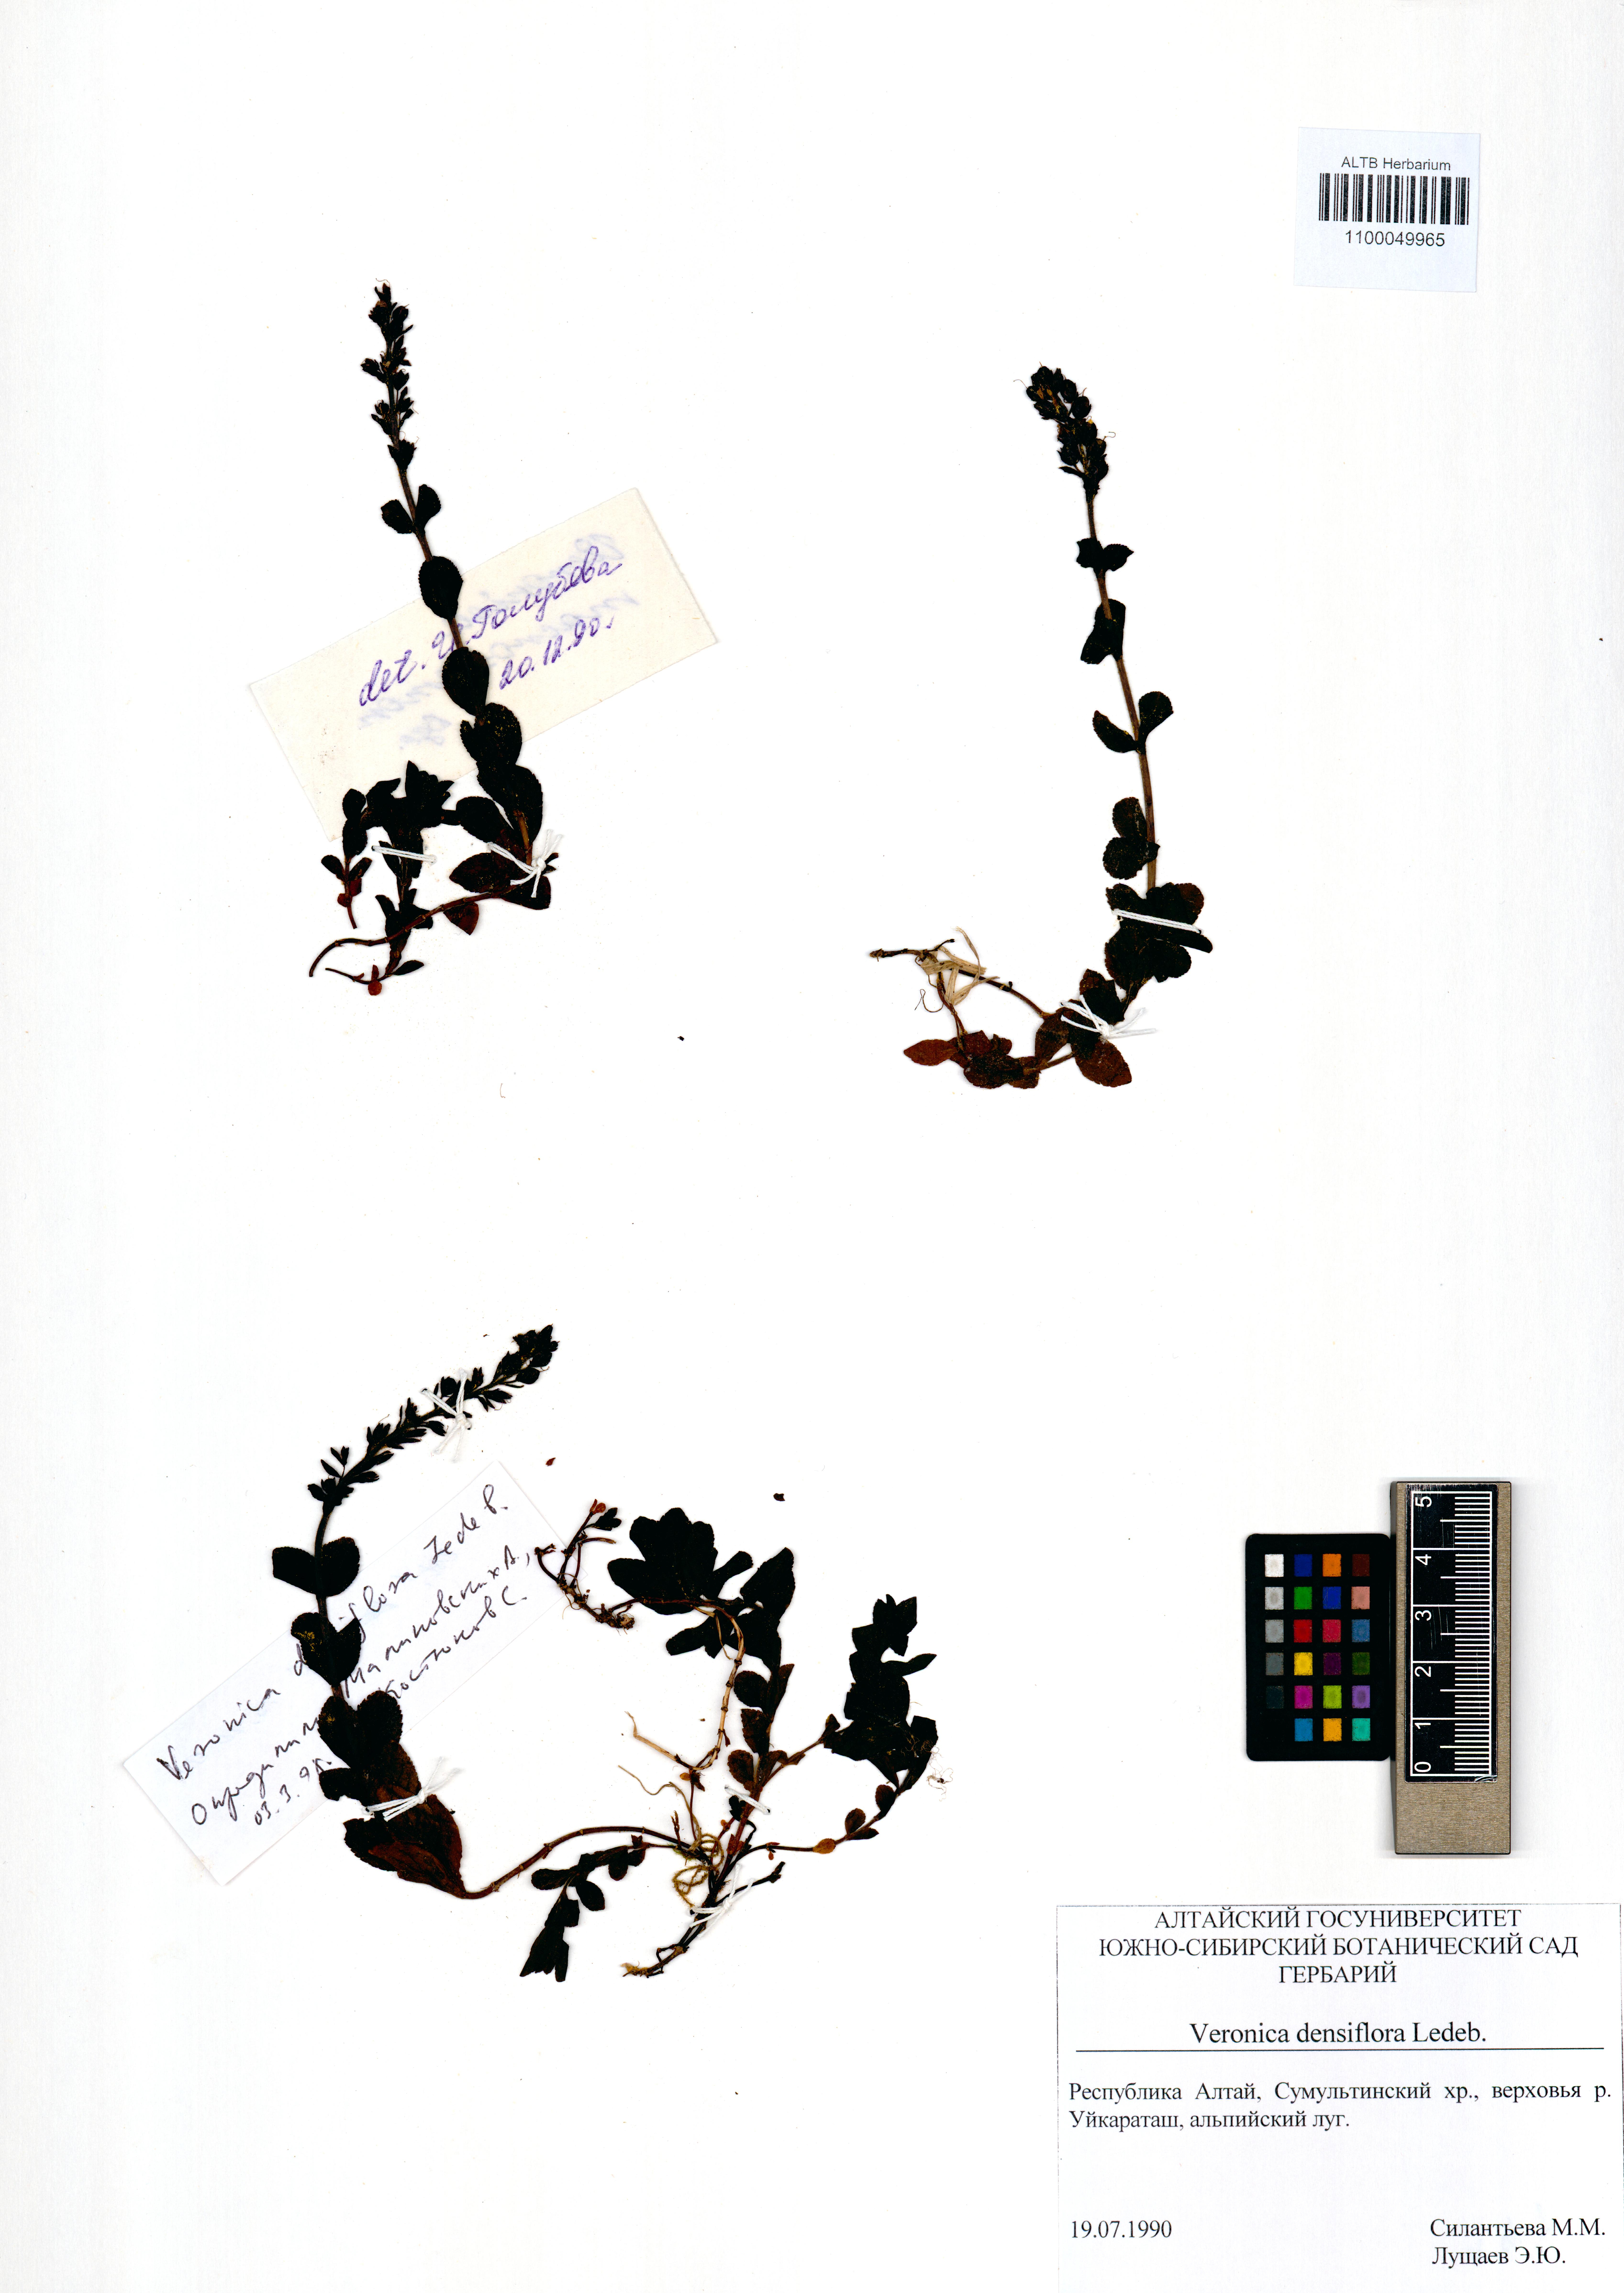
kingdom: Plantae
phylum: Tracheophyta
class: Magnoliopsida
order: Lamiales
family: Plantaginaceae
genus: Veronica
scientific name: Veronica densiflora
